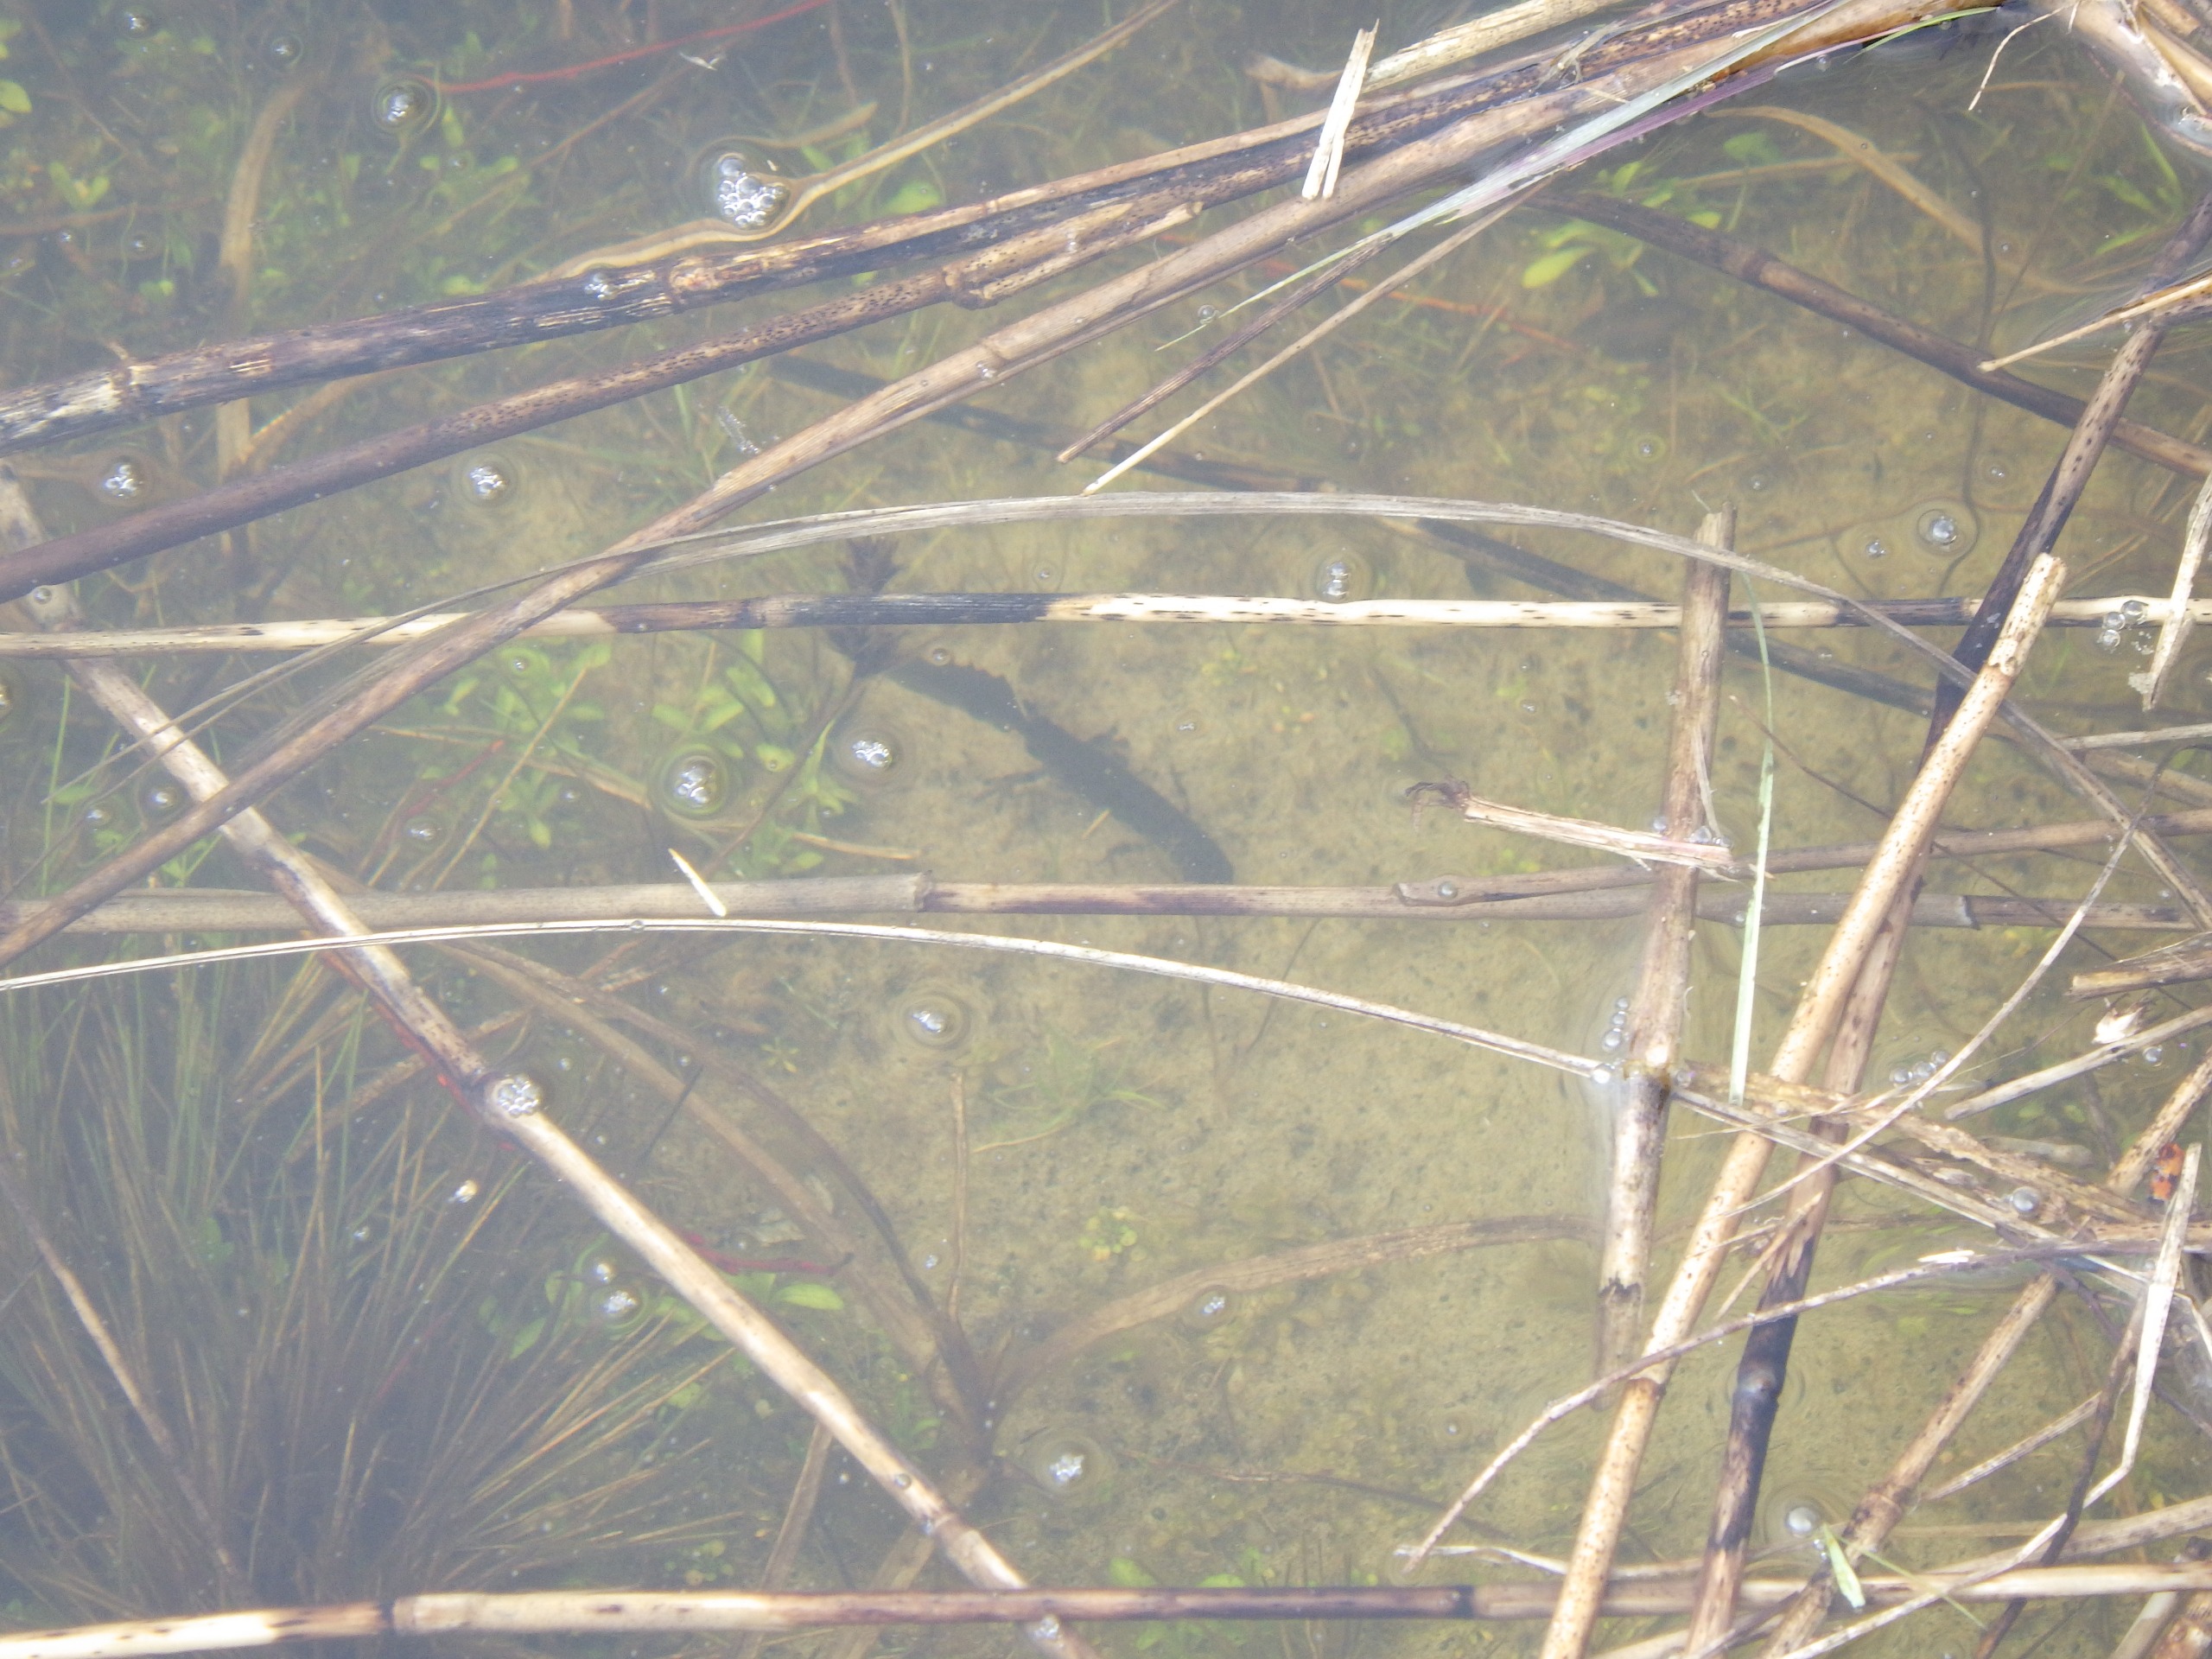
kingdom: Animalia
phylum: Chordata
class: Amphibia
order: Caudata
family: Salamandridae
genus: Lissotriton
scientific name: Lissotriton vulgaris
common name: Lille vandsalamander
